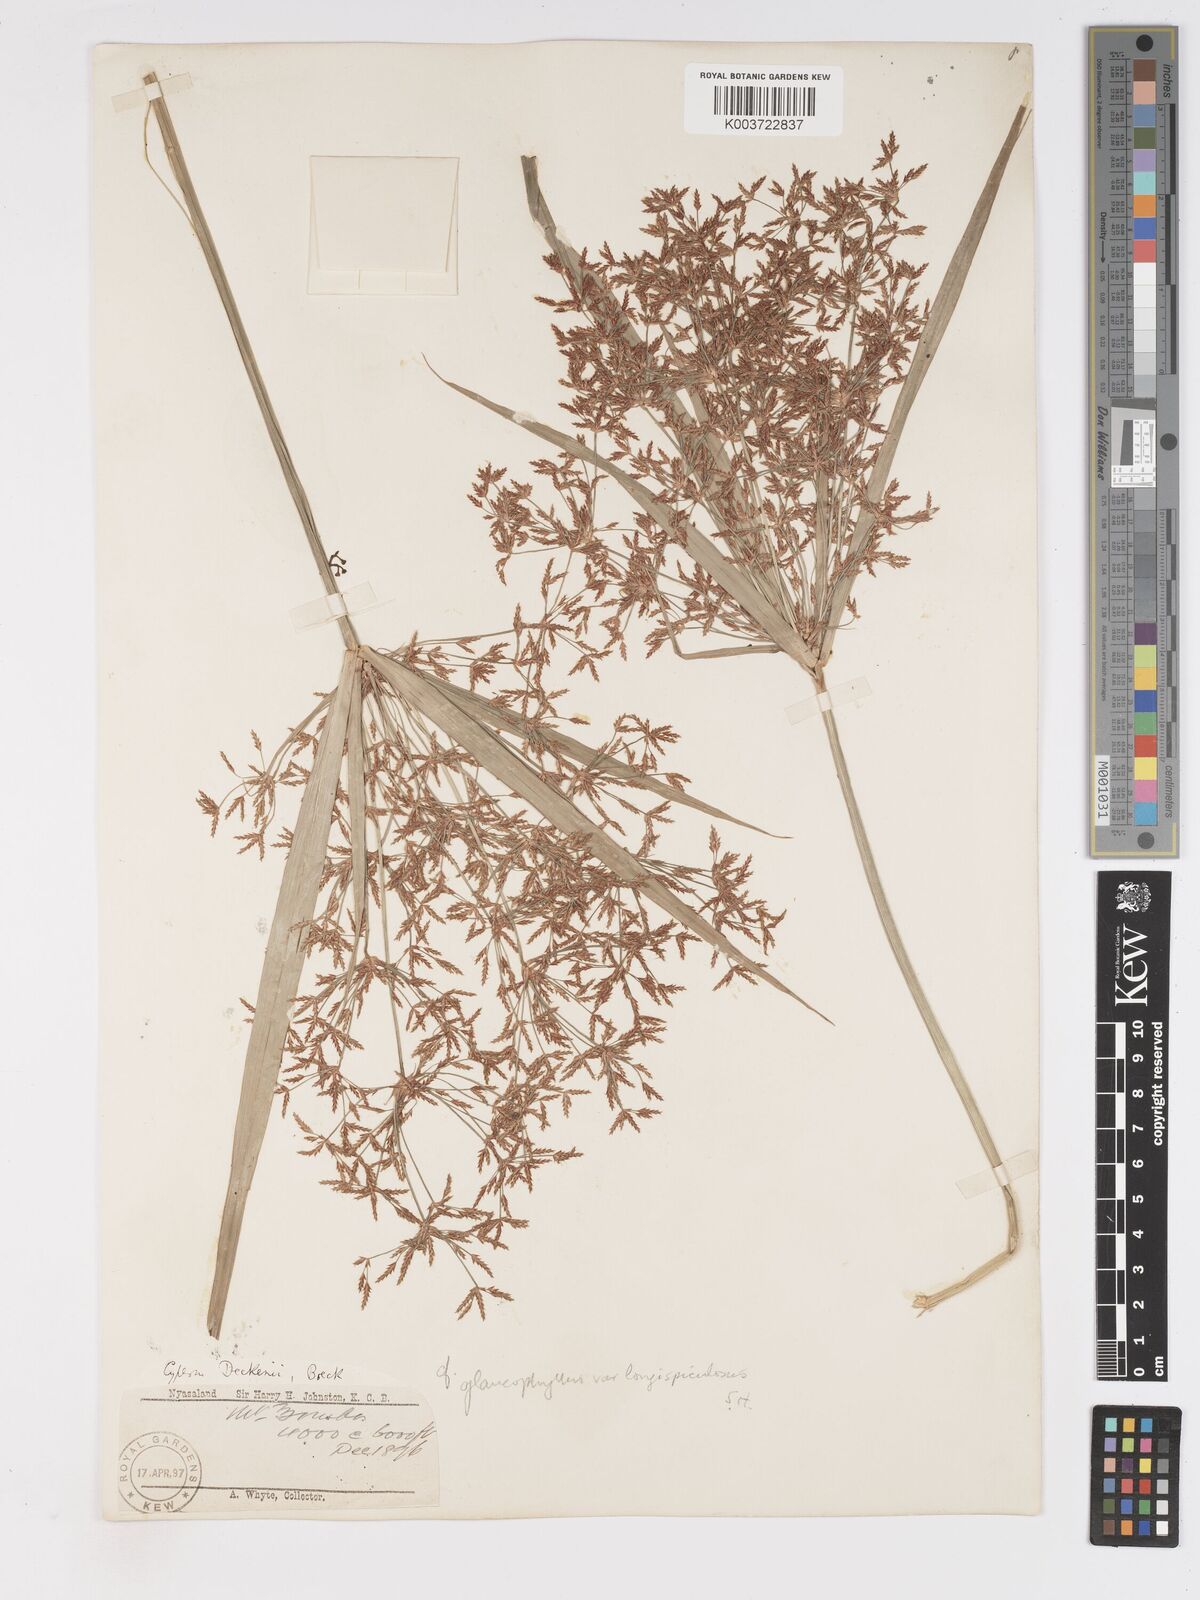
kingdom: Plantae
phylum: Tracheophyta
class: Liliopsida
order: Poales
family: Cyperaceae
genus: Cyperus
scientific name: Cyperus glaucophyllus
